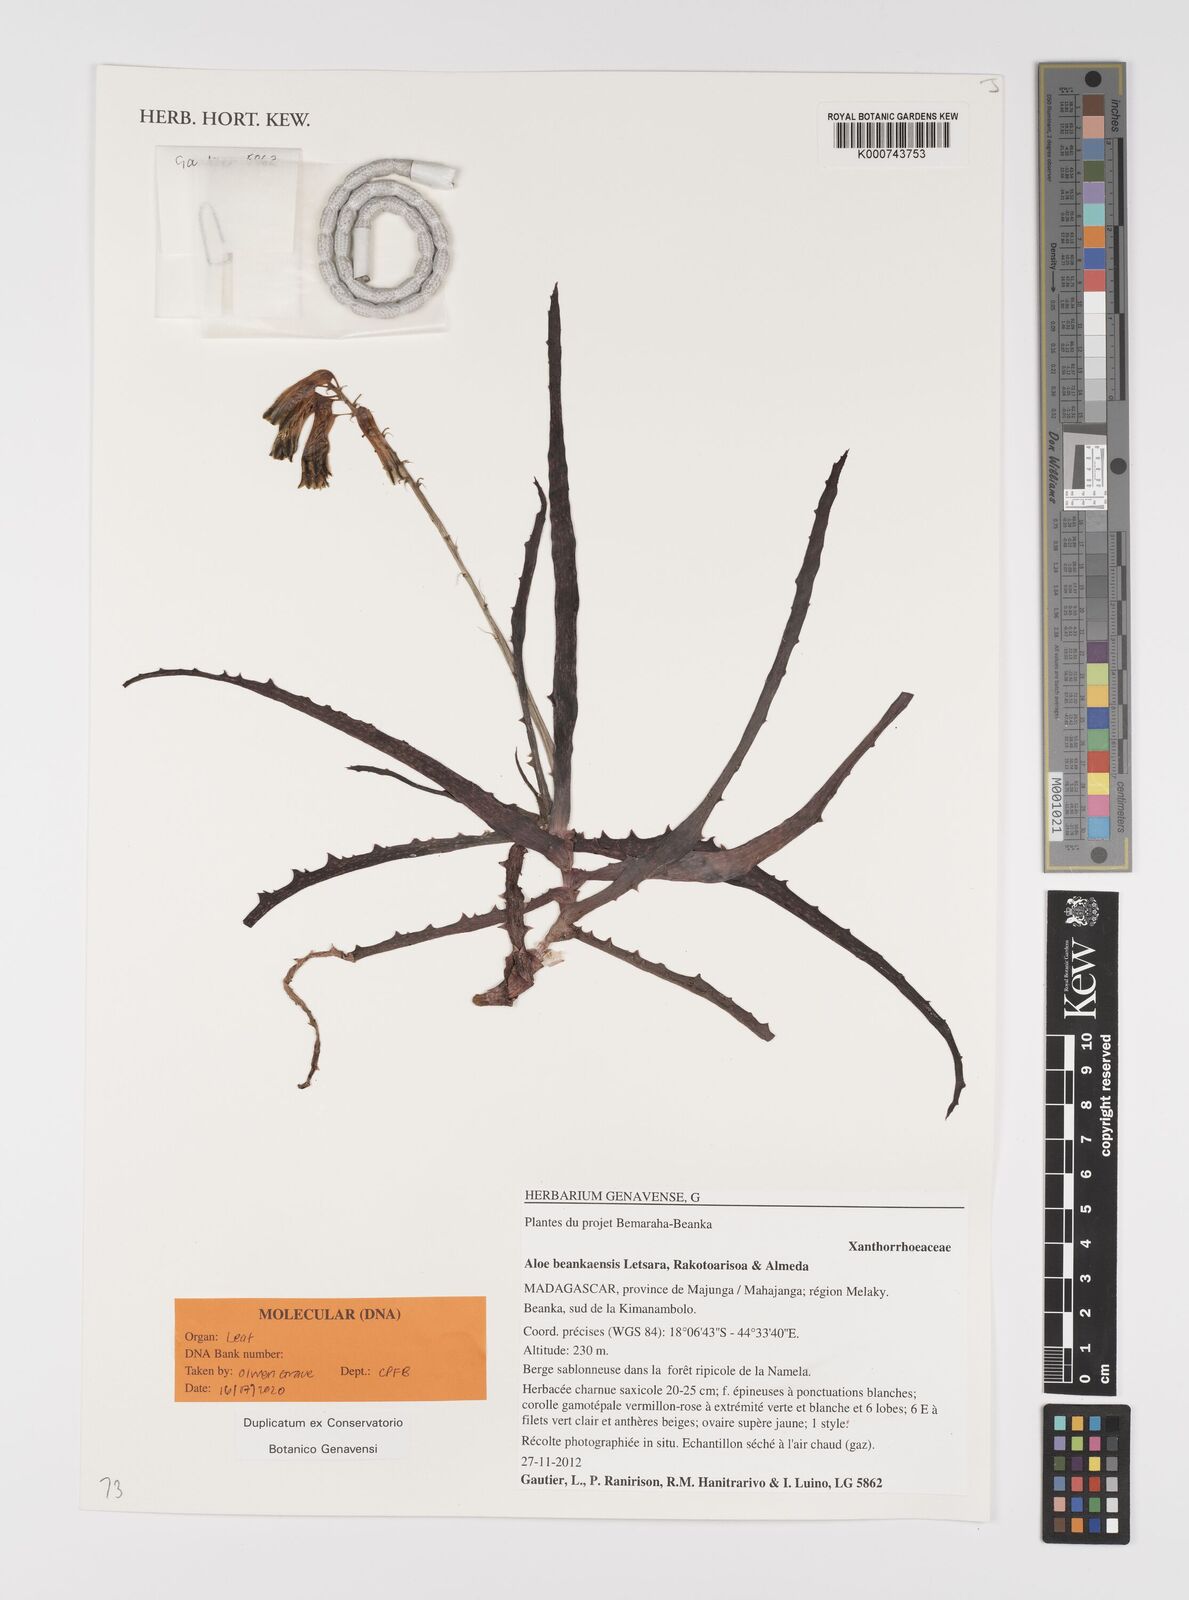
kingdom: Plantae
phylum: Tracheophyta
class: Liliopsida
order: Asparagales
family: Asphodelaceae
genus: Aloe
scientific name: Aloe
